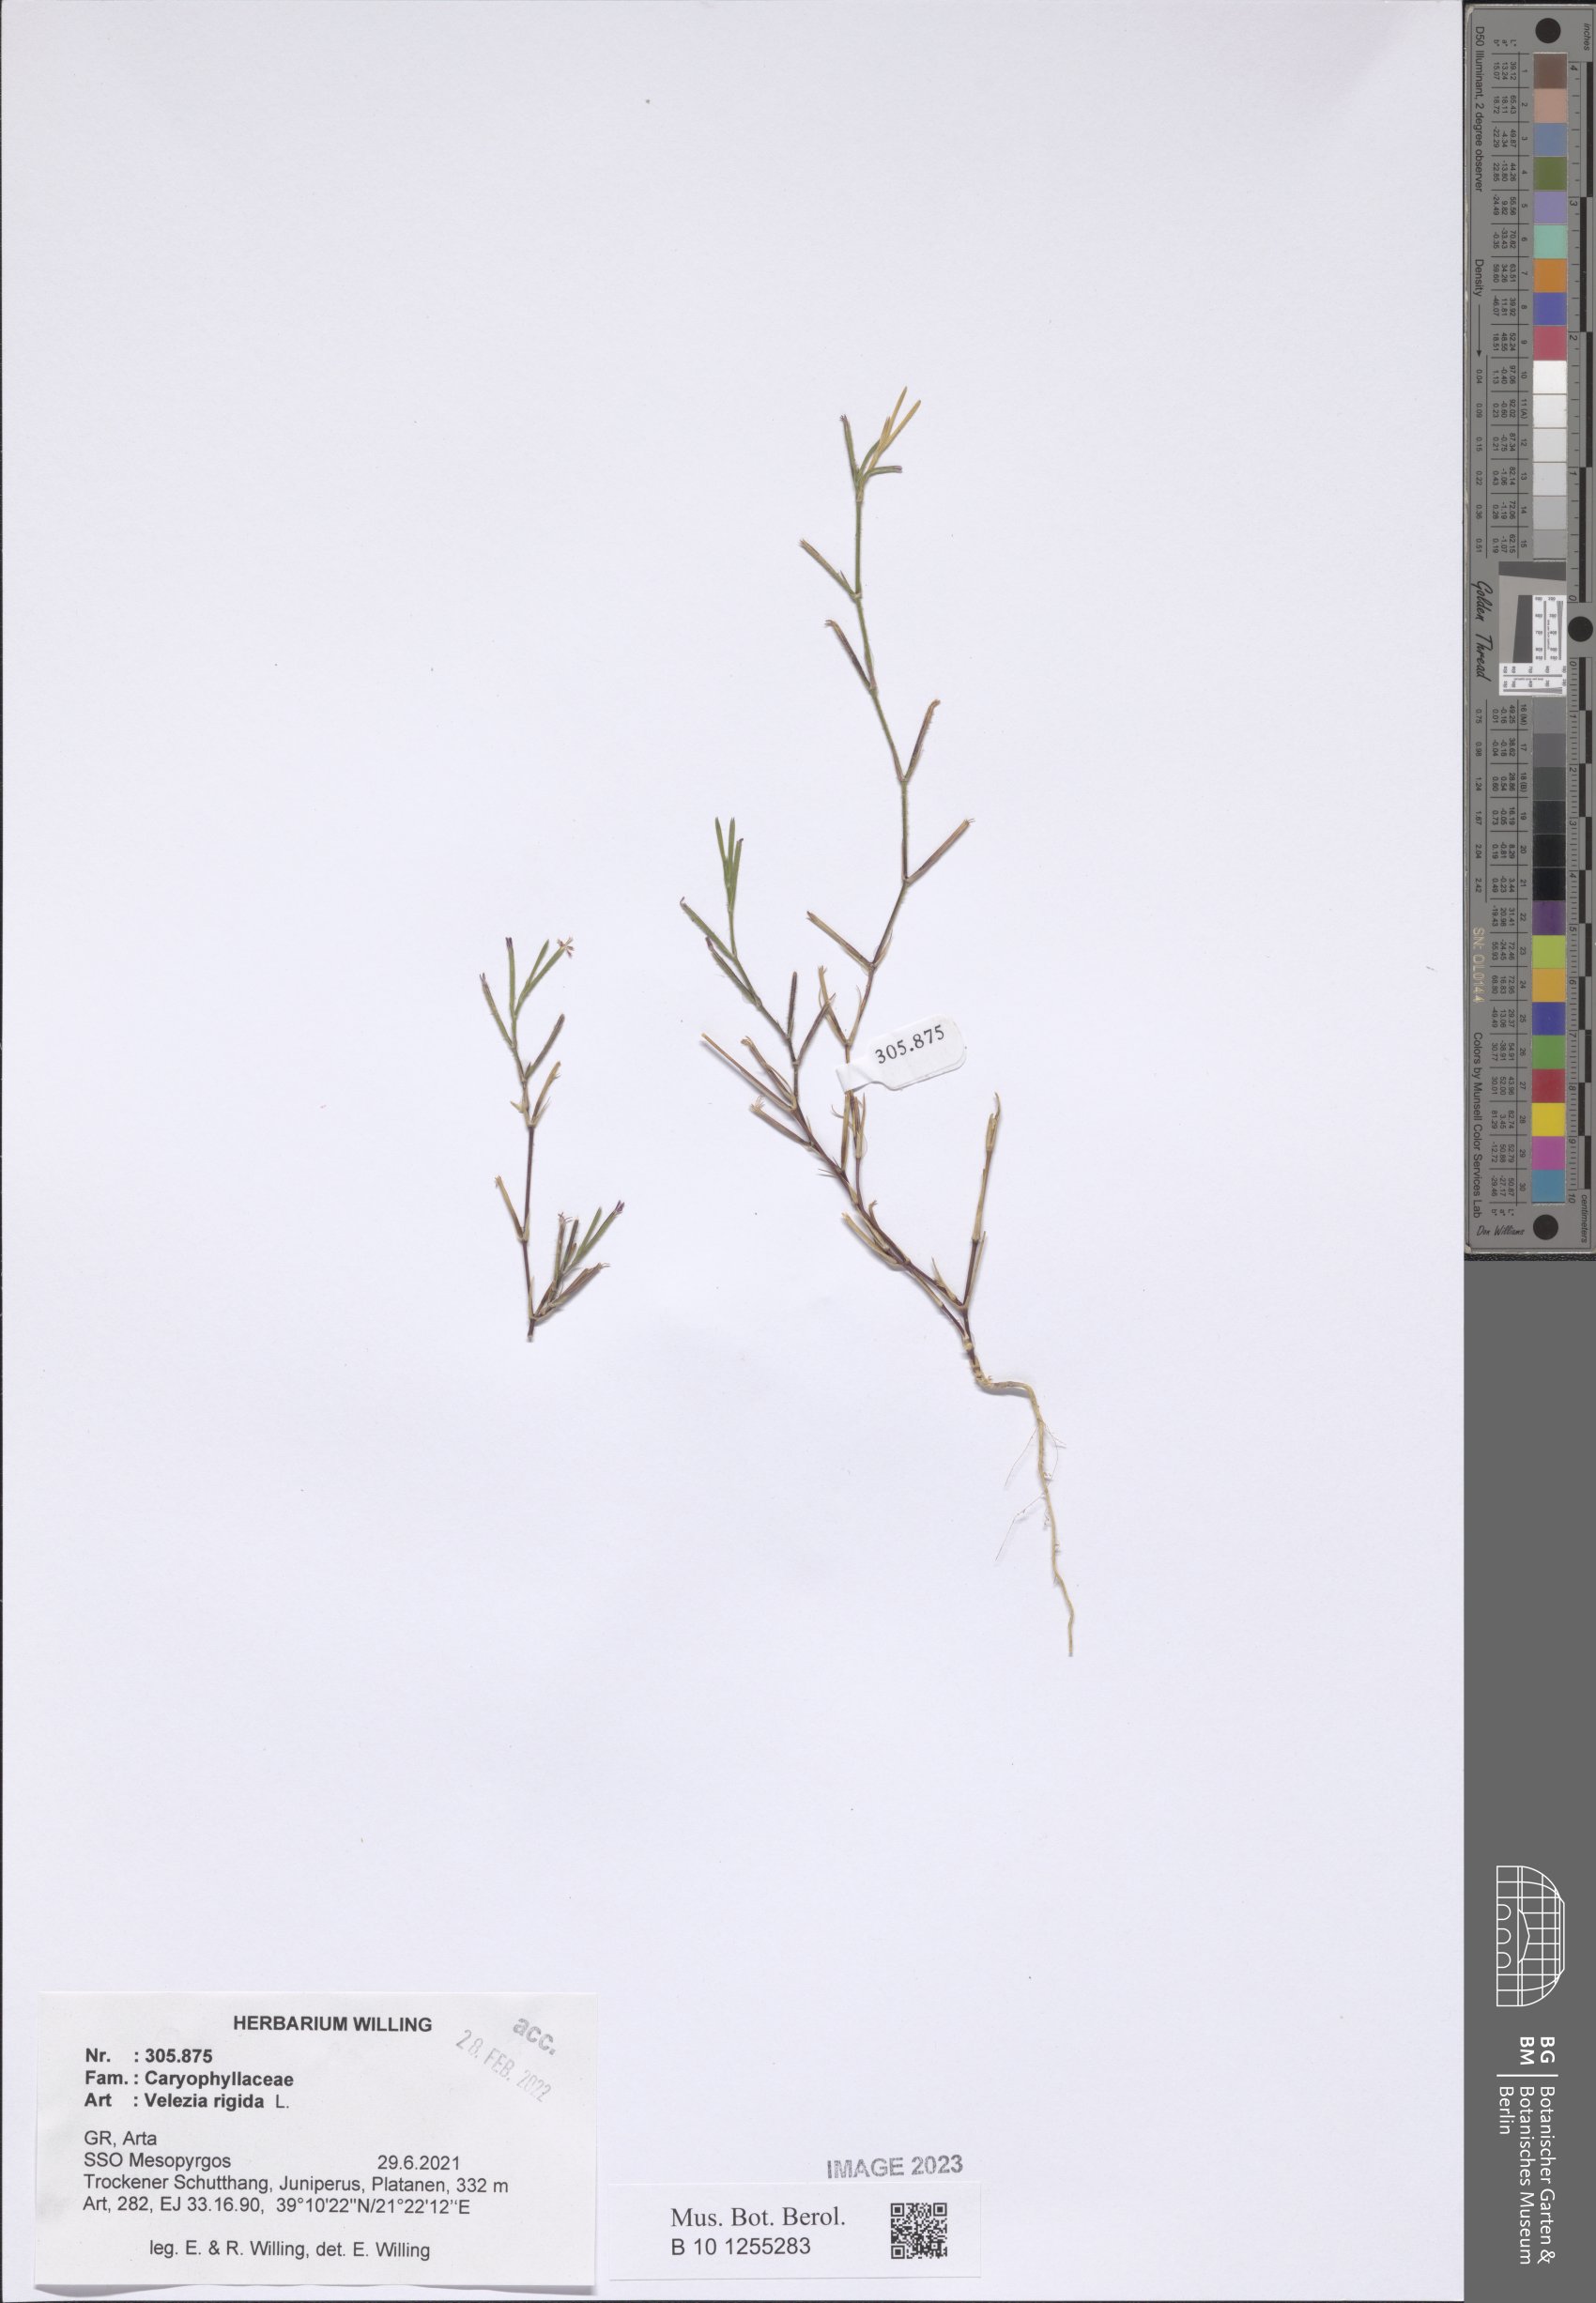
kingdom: Plantae
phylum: Tracheophyta
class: Magnoliopsida
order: Caryophyllales
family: Caryophyllaceae
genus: Dianthus
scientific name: Dianthus nudiflorus
